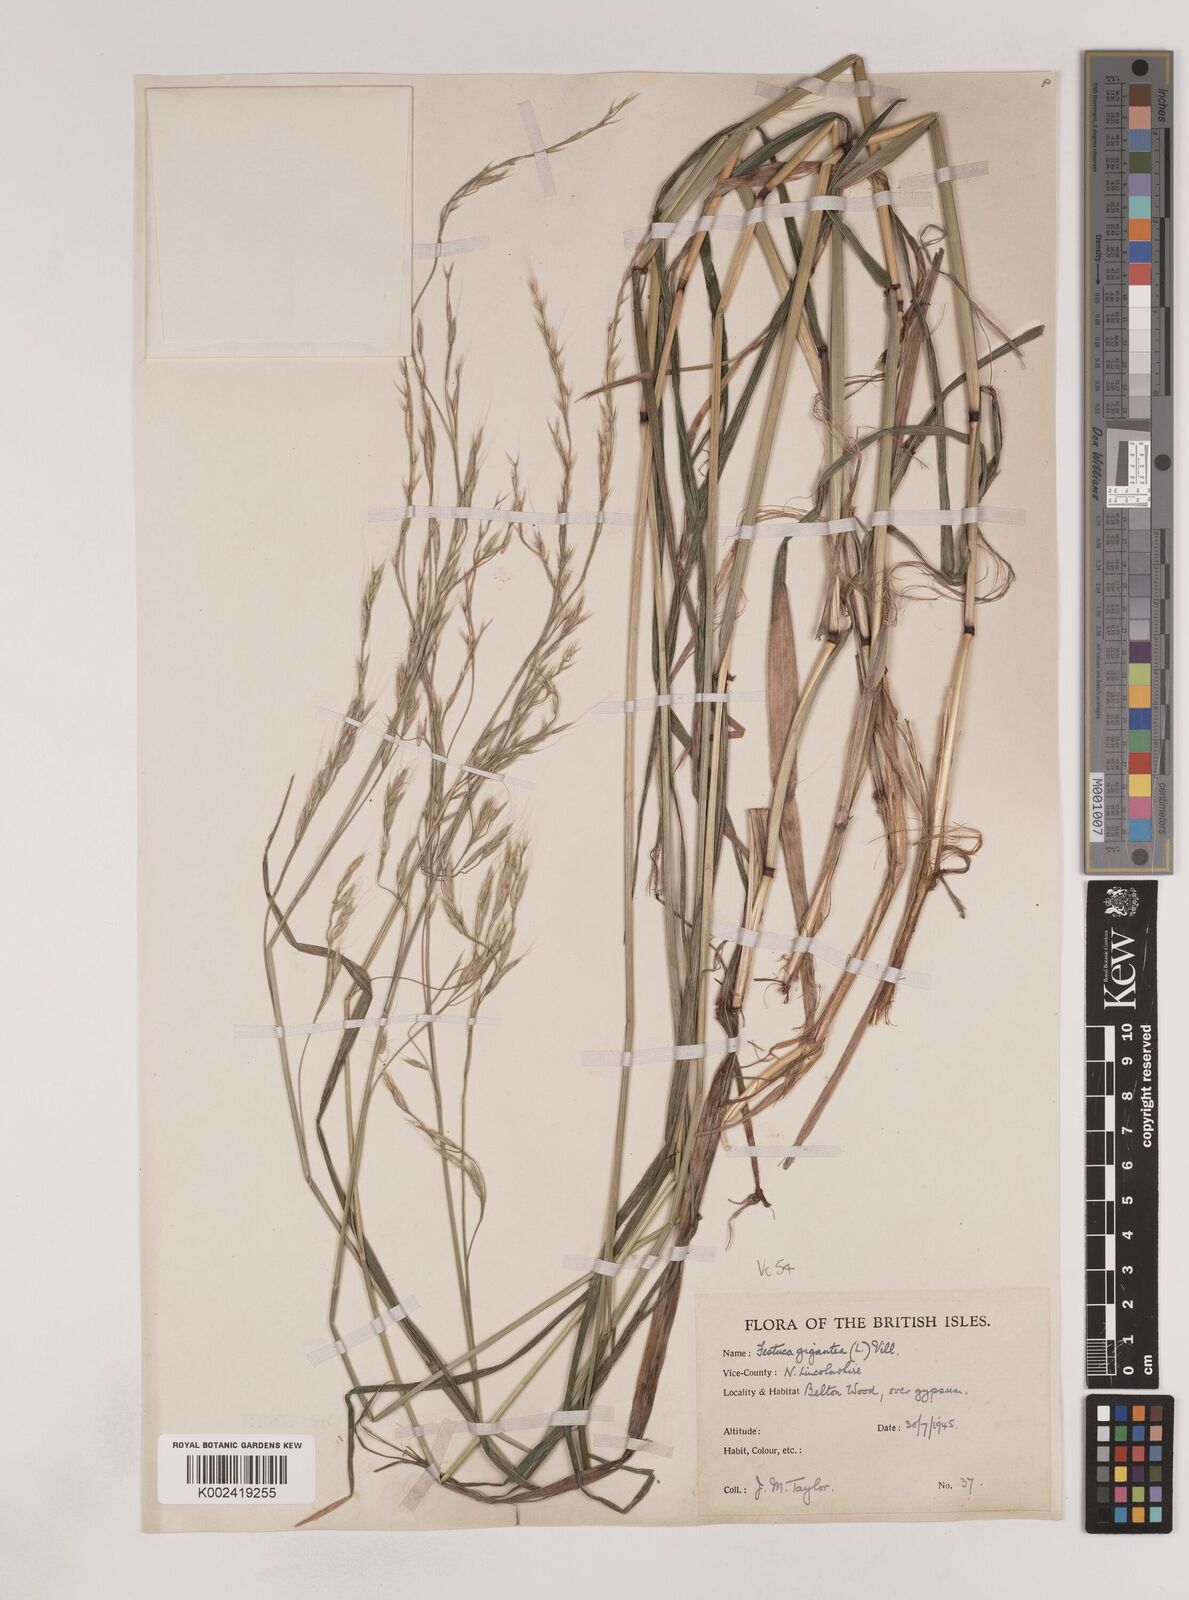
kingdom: Plantae
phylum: Tracheophyta
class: Liliopsida
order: Poales
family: Poaceae
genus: Lolium
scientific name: Lolium giganteum
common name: Giant fescue
